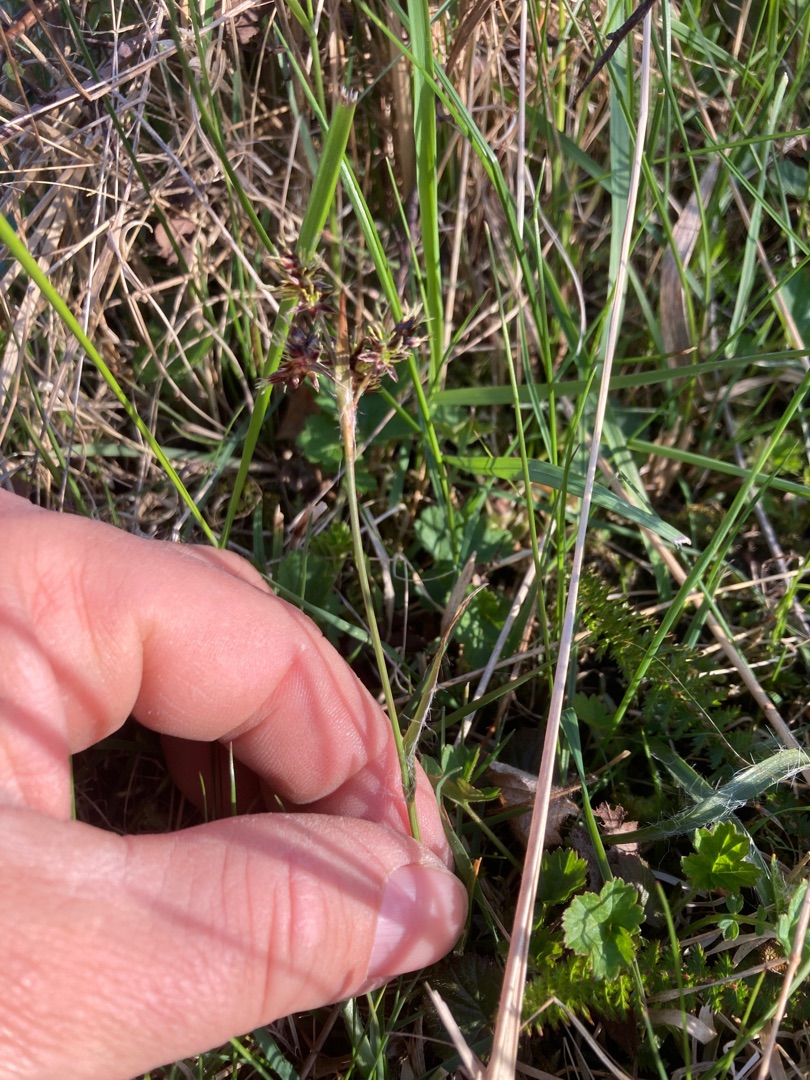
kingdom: Plantae
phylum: Tracheophyta
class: Liliopsida
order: Poales
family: Juncaceae
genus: Luzula
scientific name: Luzula campestris
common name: Mark-frytle
